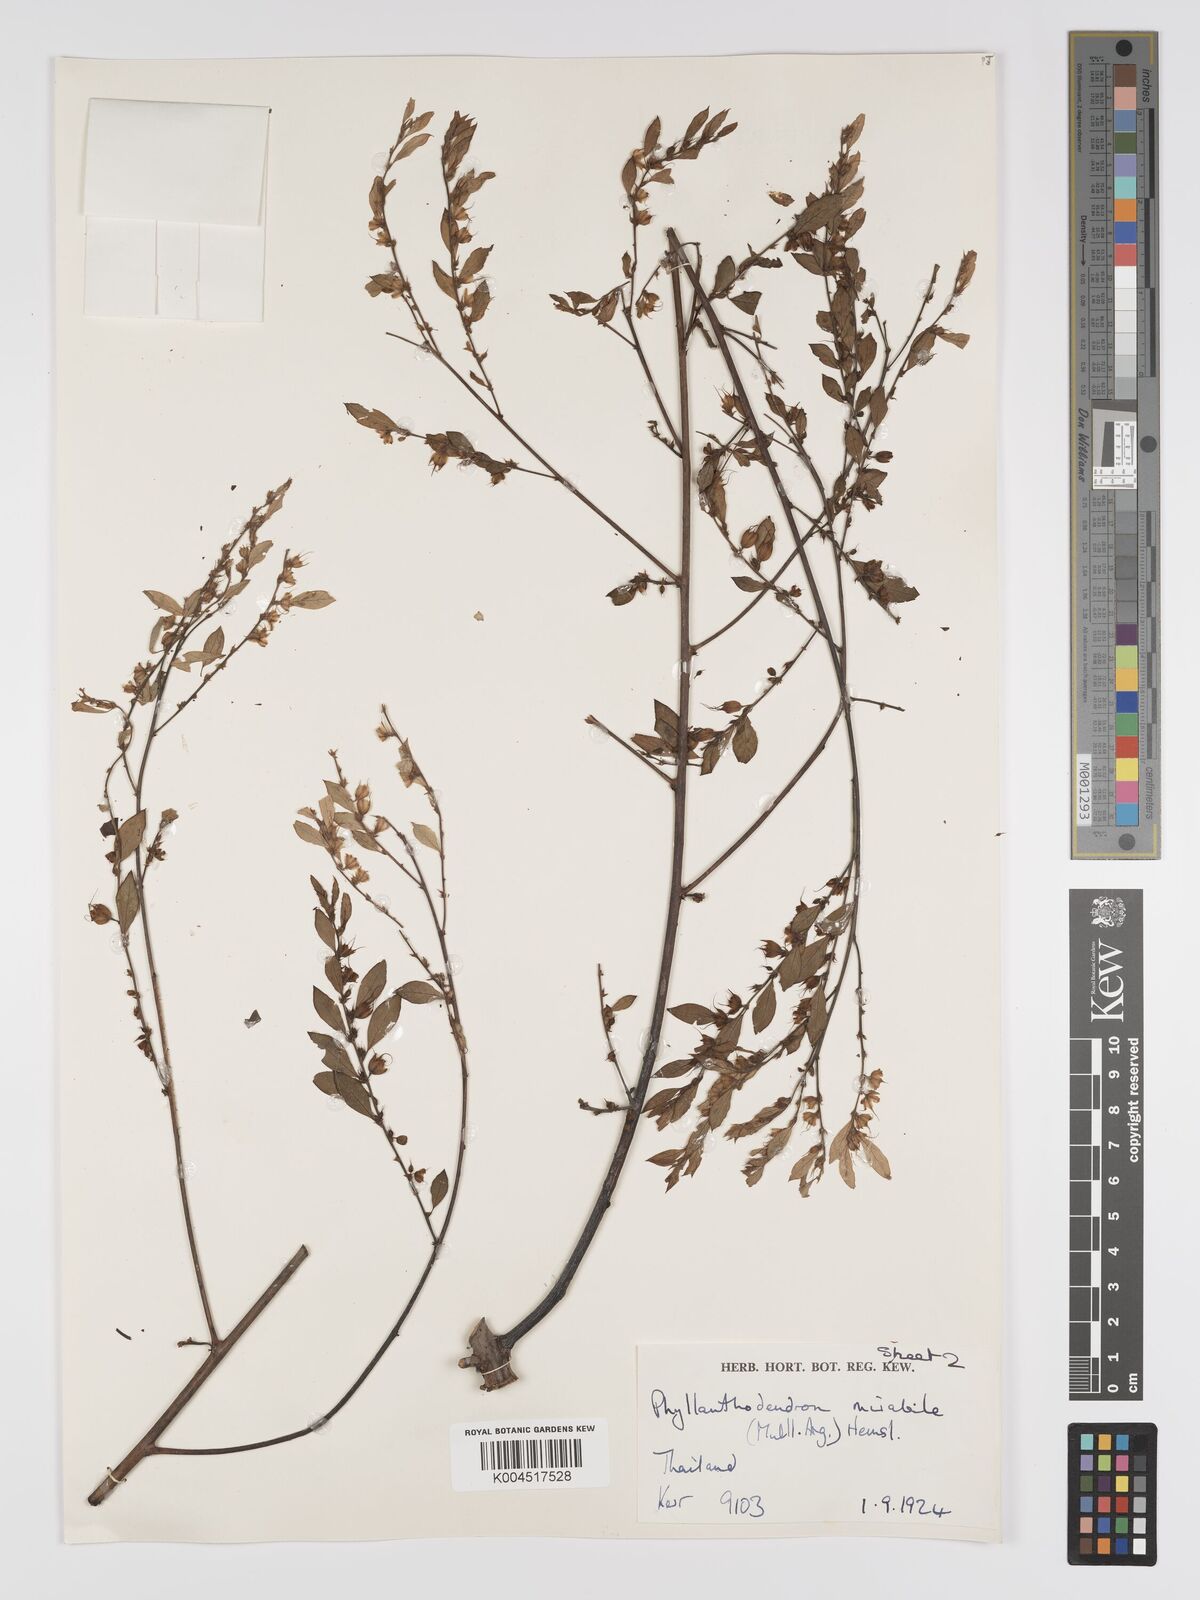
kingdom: Plantae
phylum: Tracheophyta
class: Magnoliopsida
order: Malpighiales
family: Phyllanthaceae
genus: Phyllanthus
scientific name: Phyllanthus mirabilis
